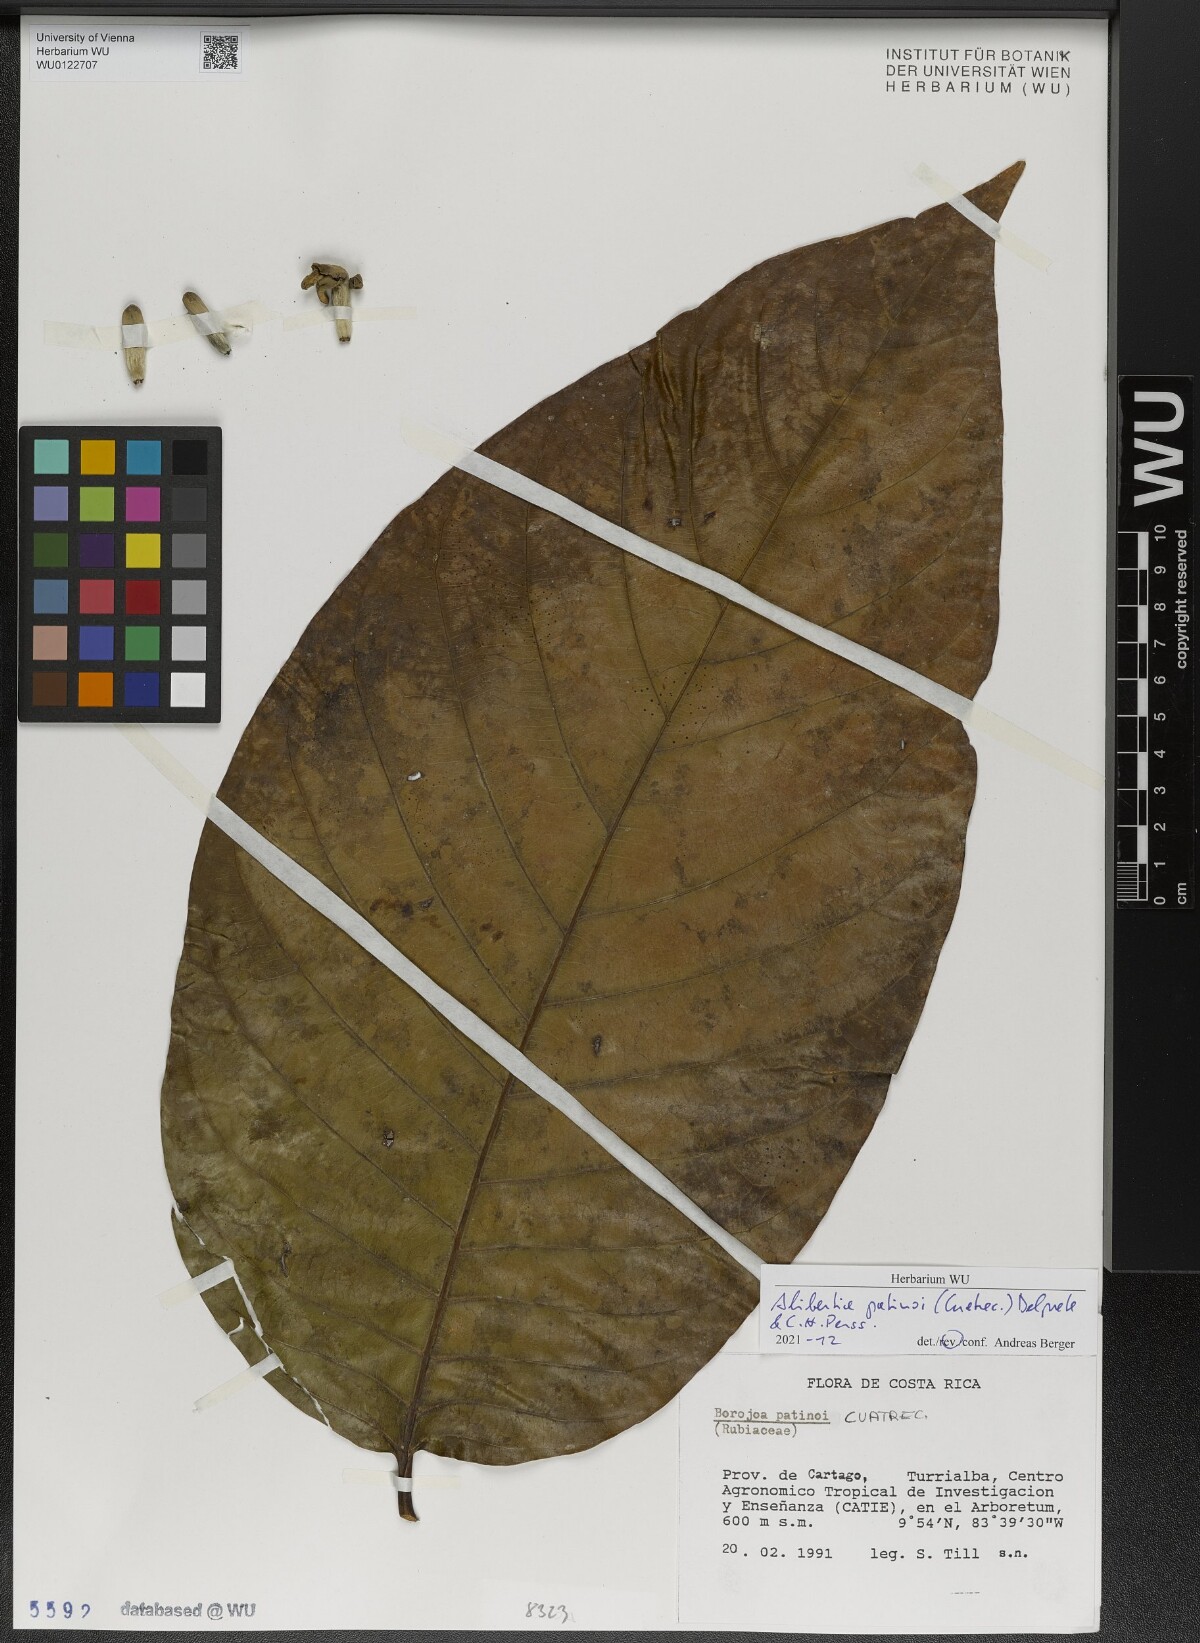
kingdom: Plantae
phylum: Tracheophyta
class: Magnoliopsida
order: Gentianales
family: Rubiaceae
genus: Alibertia
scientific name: Alibertia patinoi
